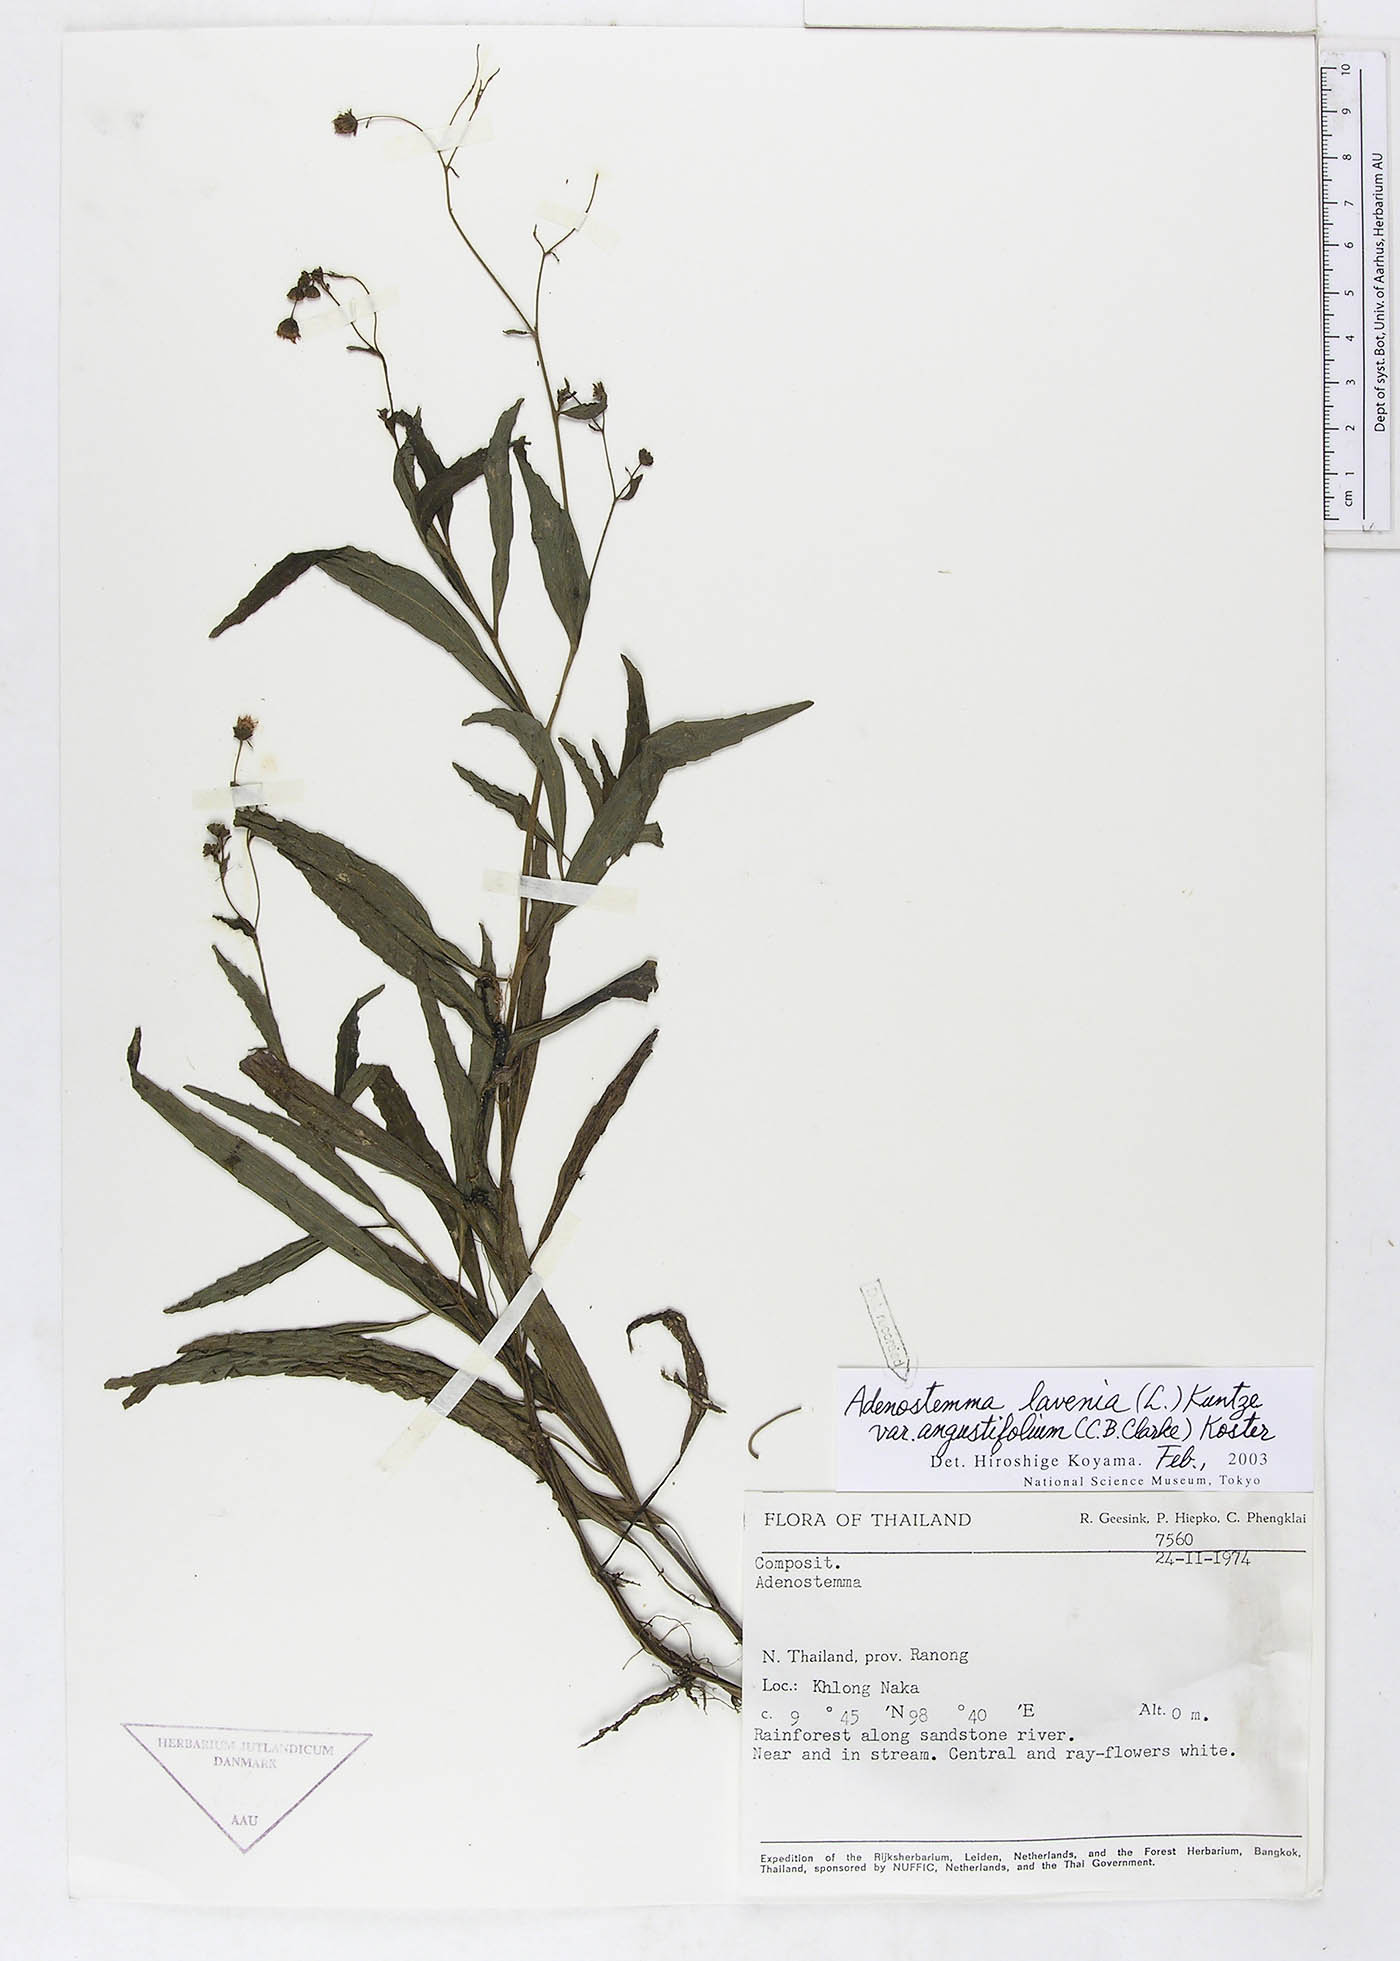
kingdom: Plantae
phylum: Tracheophyta
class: Magnoliopsida
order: Asterales
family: Asteraceae
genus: Adenostemma
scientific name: Adenostemma lavenia
